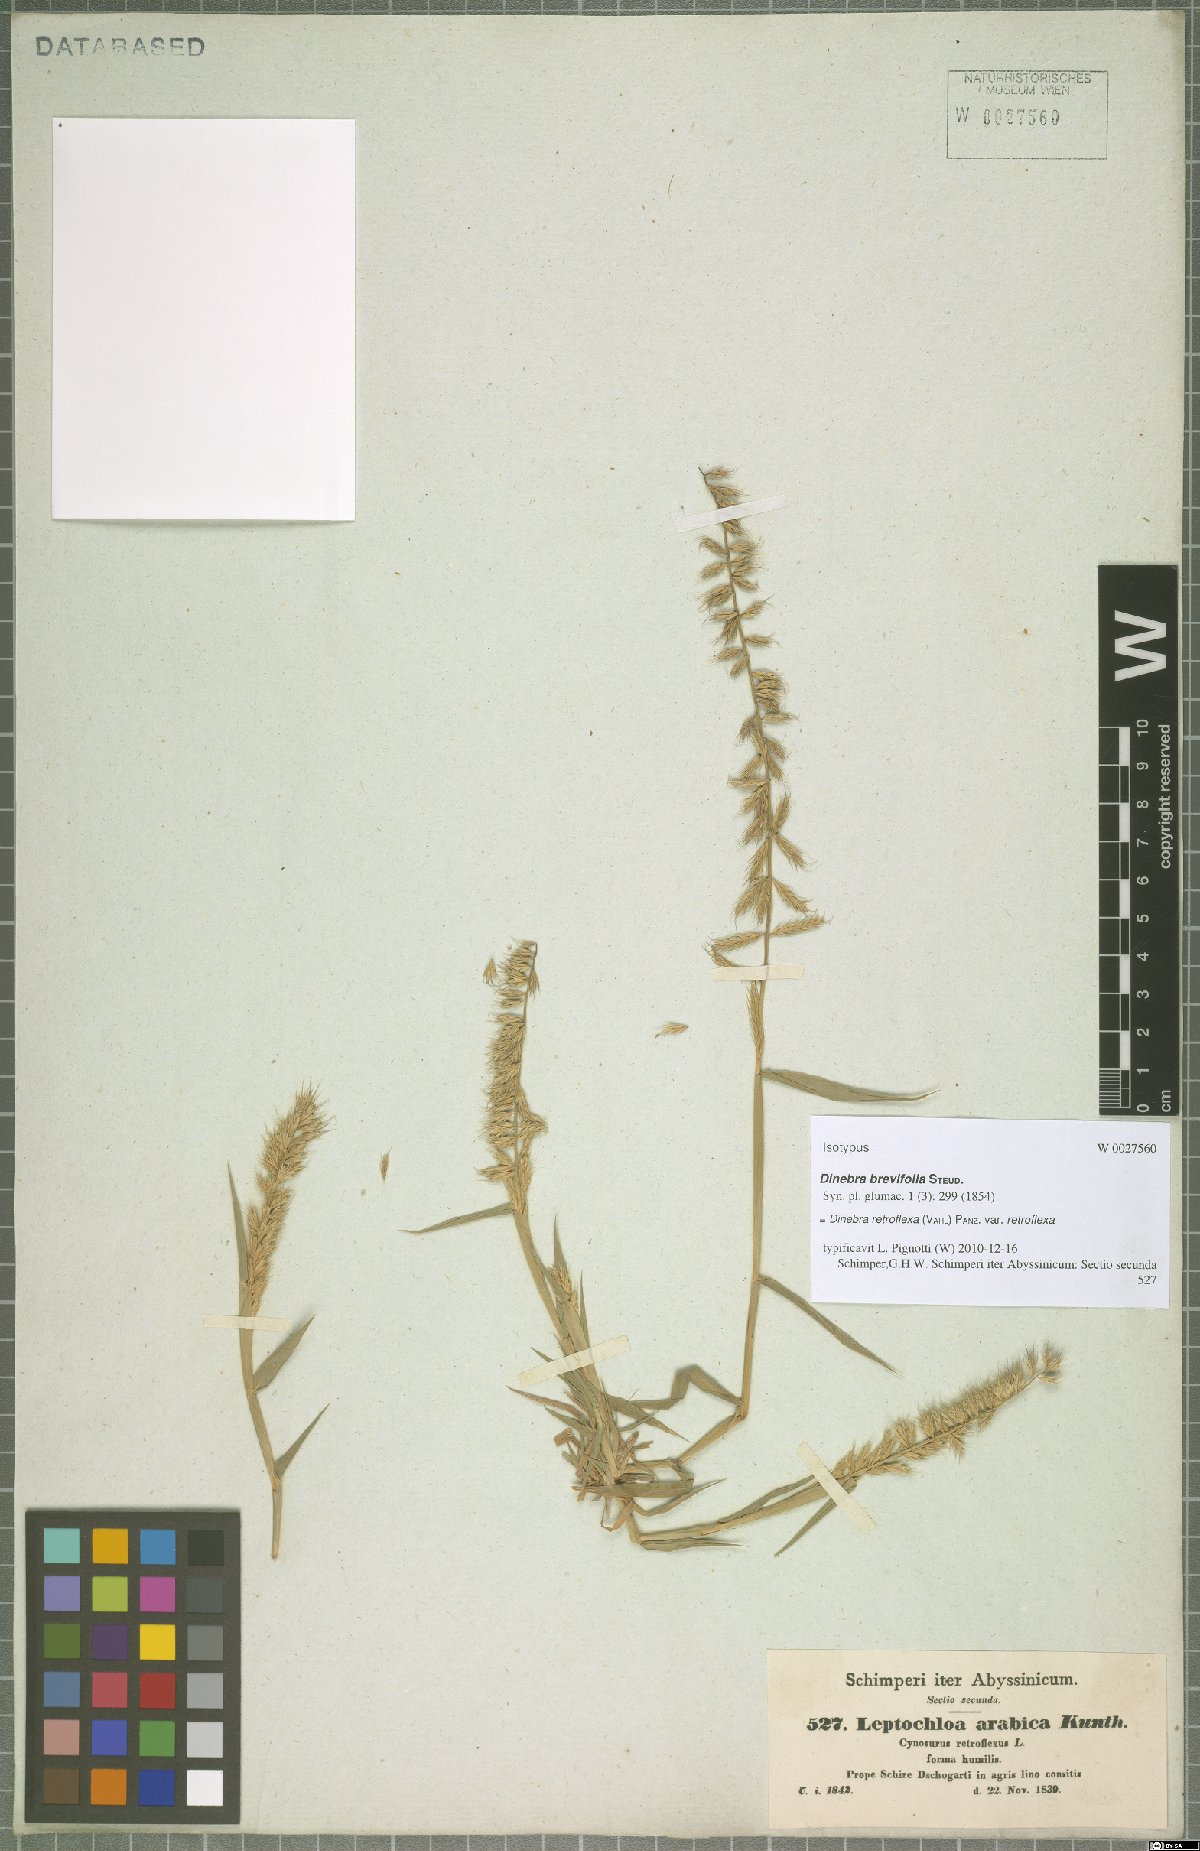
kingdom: Plantae
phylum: Tracheophyta
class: Liliopsida
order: Poales
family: Poaceae
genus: Dinebra
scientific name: Dinebra retroflexa
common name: Viper grass
